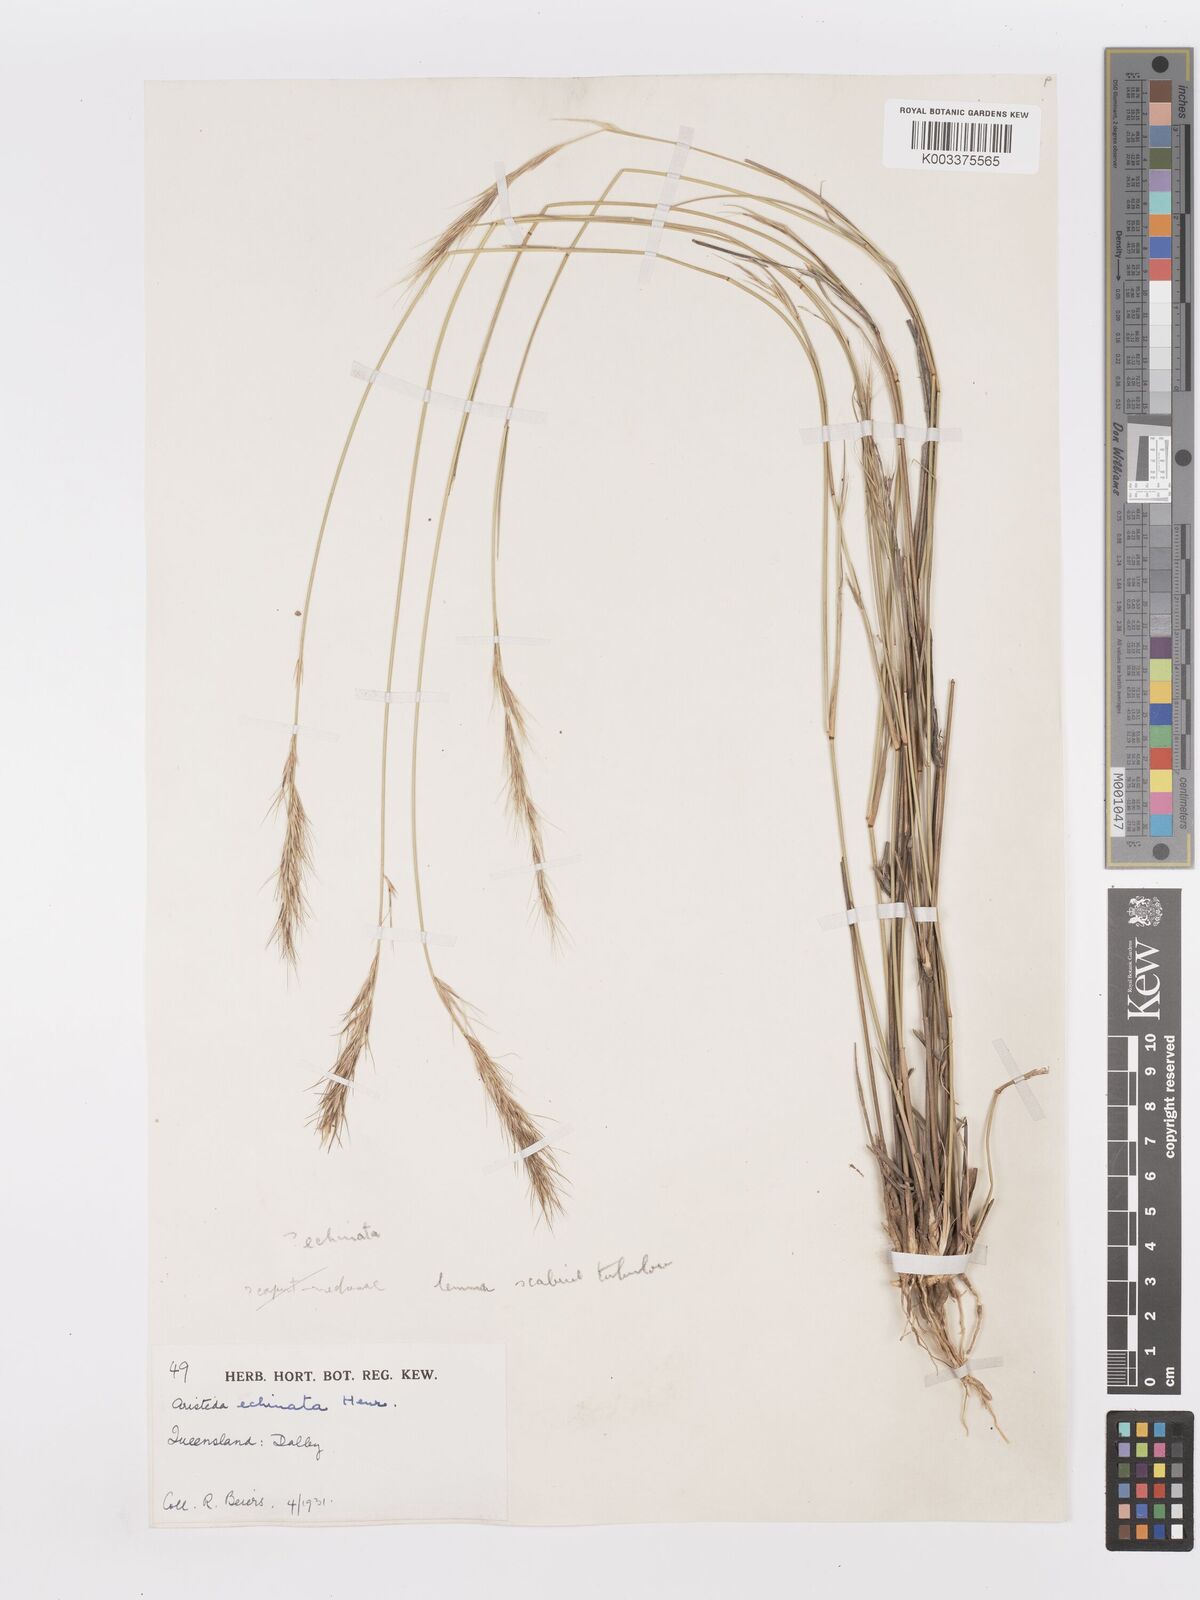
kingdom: Plantae
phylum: Tracheophyta
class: Liliopsida
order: Poales
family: Poaceae
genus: Aristida
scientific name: Aristida echinata
